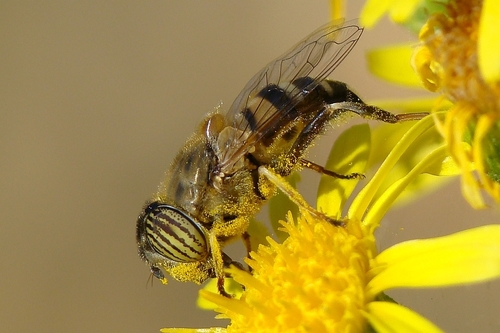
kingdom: Animalia
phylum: Arthropoda
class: Insecta
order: Diptera
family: Syrphidae
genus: Eristalinus
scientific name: Eristalinus taeniops
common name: Syrphid fly
